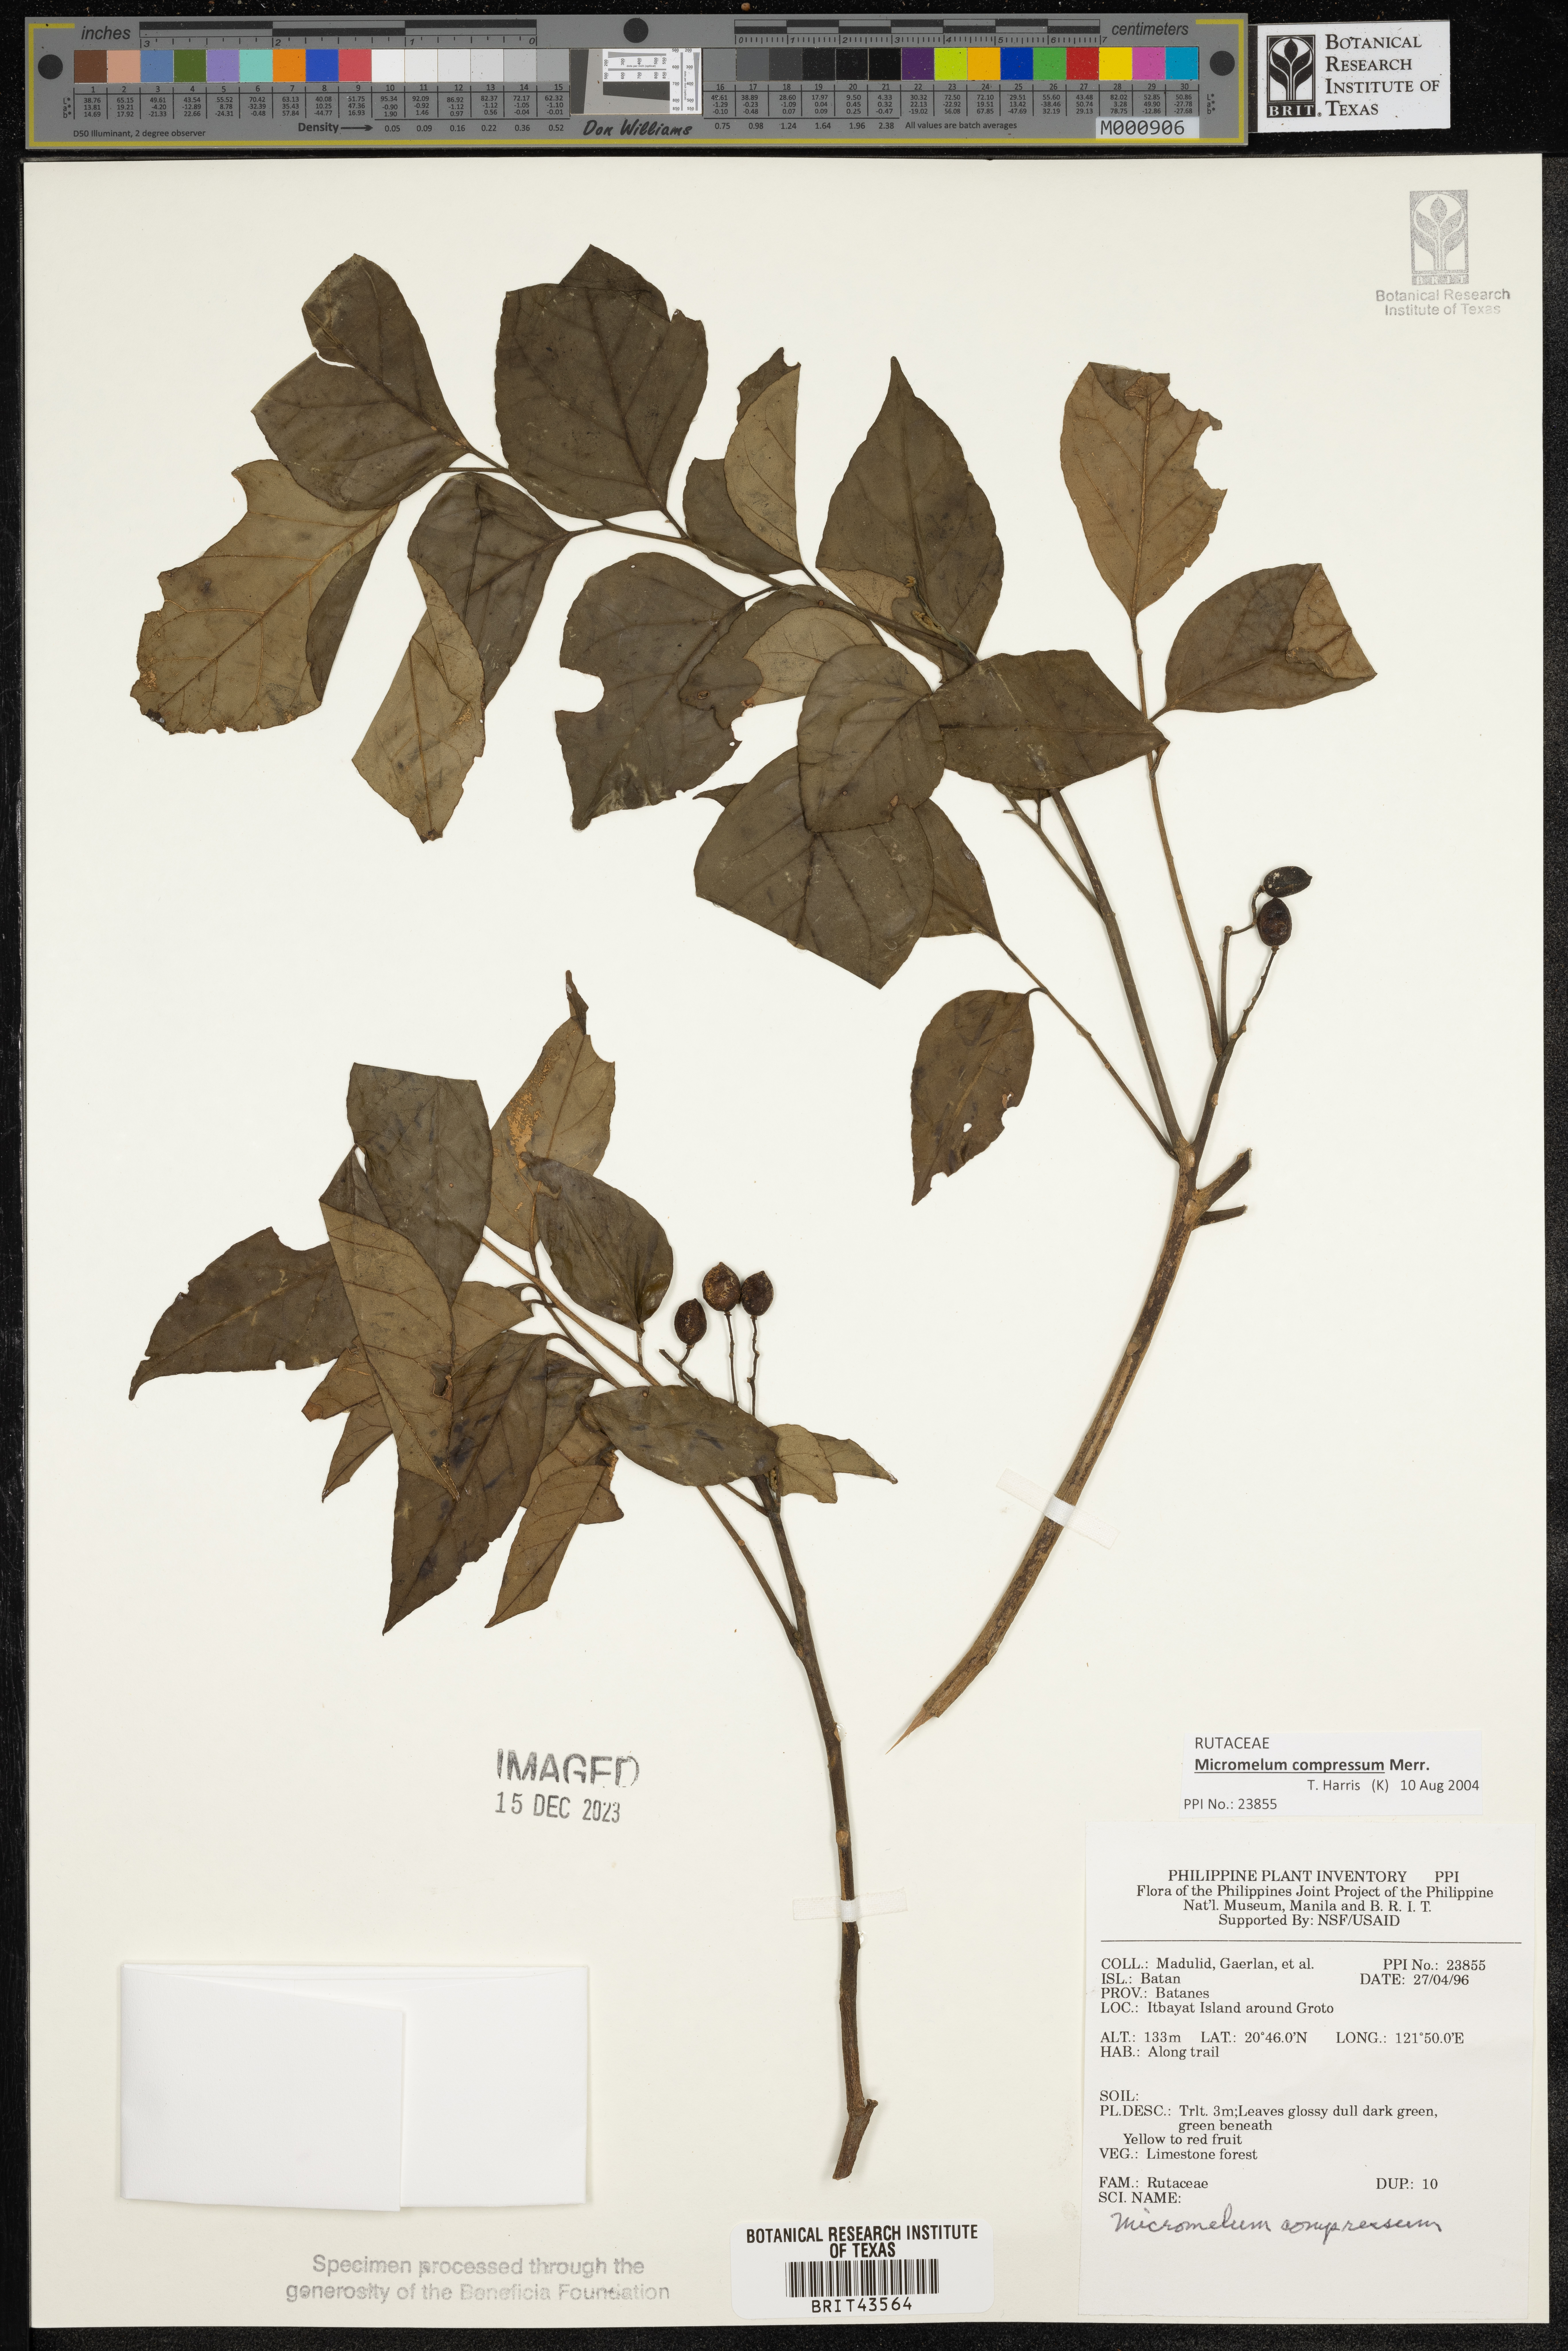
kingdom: Plantae
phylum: Tracheophyta
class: Magnoliopsida
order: Sapindales
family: Rutaceae
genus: Micromelum
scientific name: Micromelum compressum
